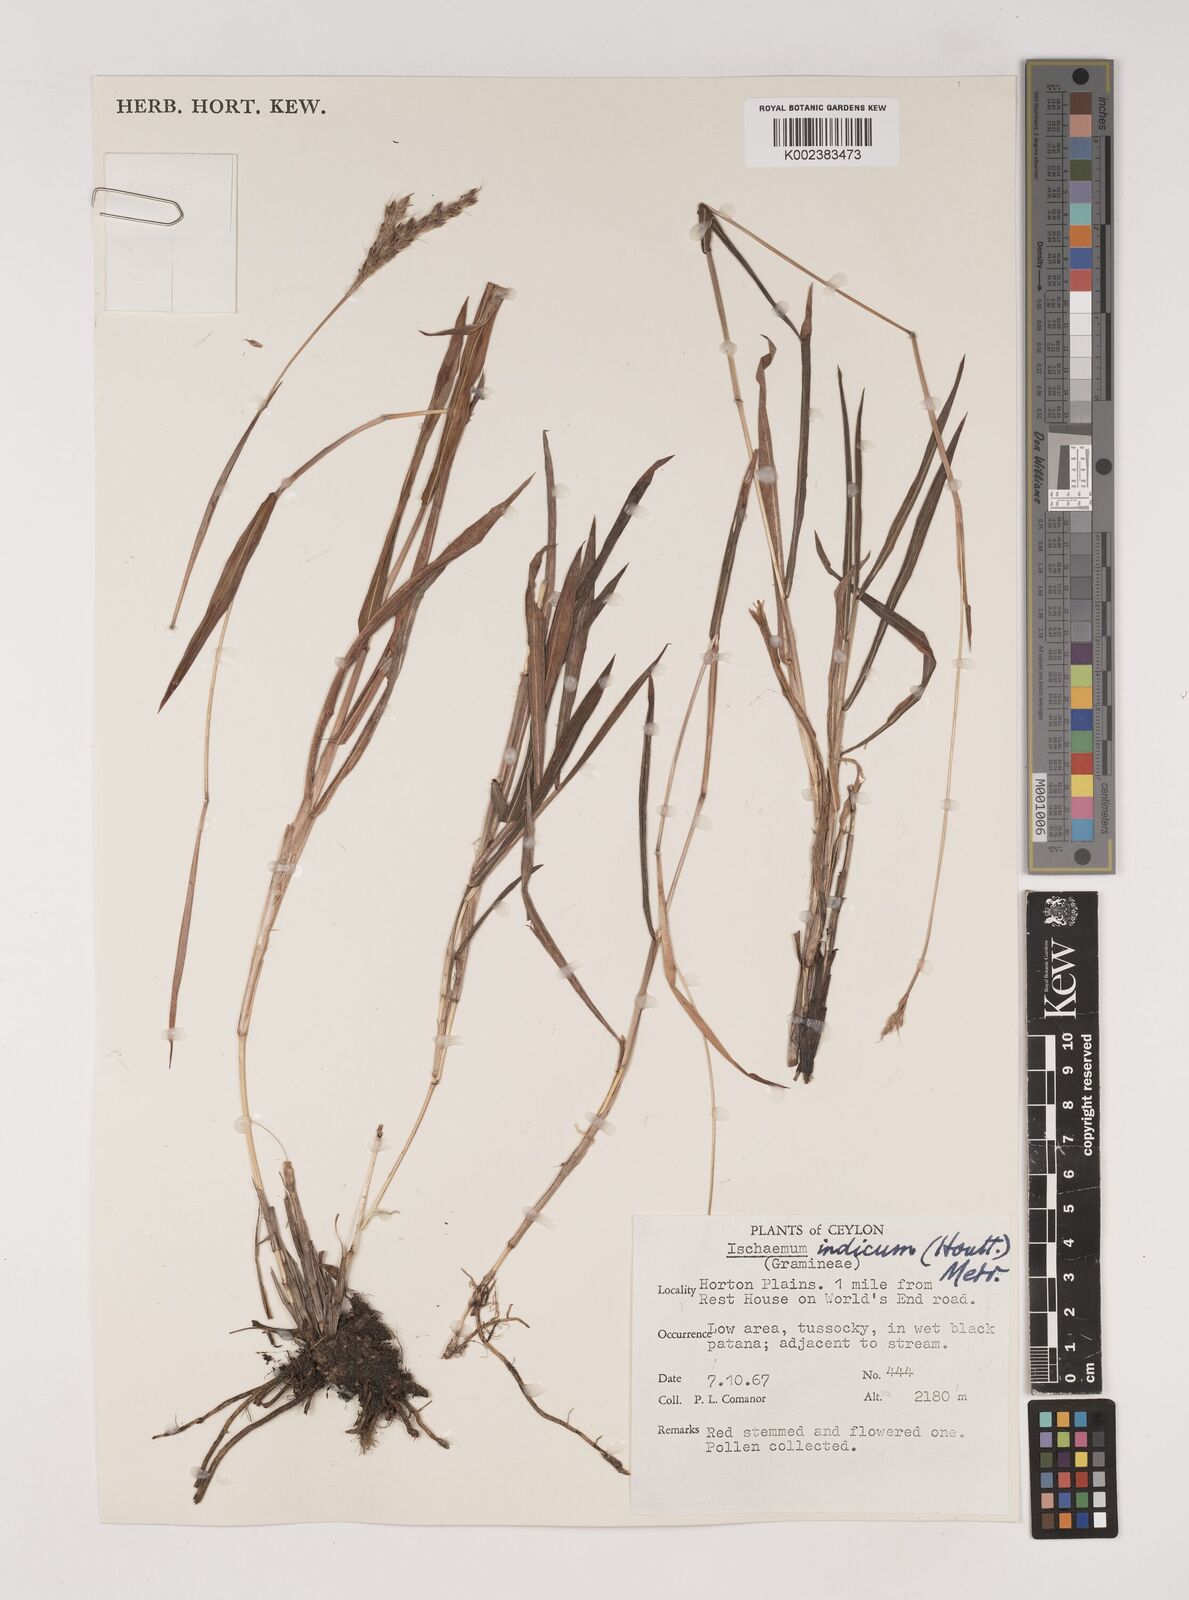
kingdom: Plantae
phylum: Tracheophyta
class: Liliopsida
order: Poales
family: Poaceae
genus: Polytrias
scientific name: Polytrias indica
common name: Indian murainagrass
